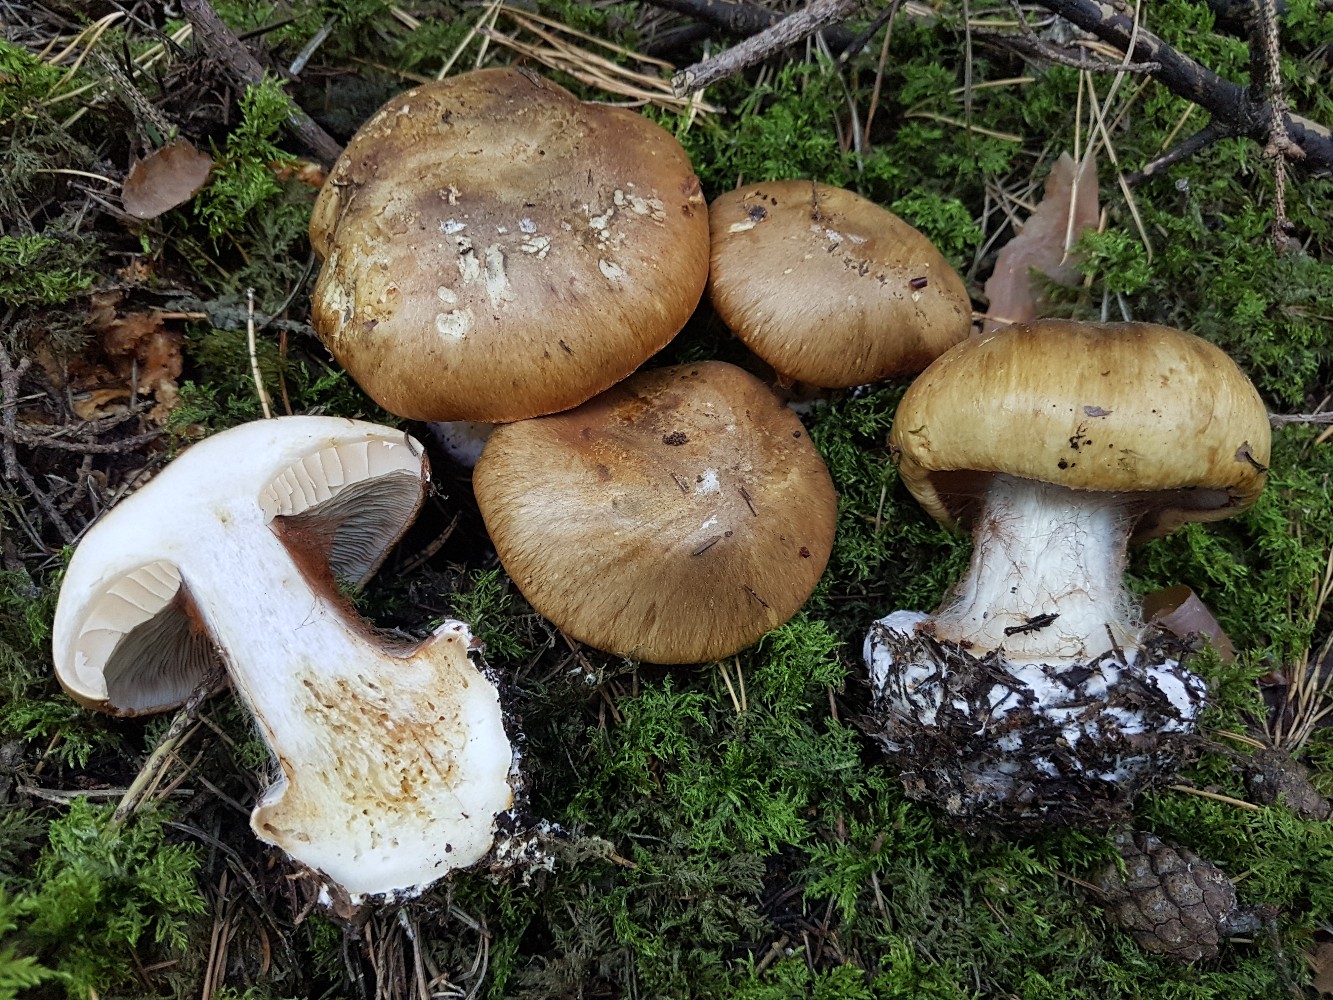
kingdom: Fungi
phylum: Basidiomycota
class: Agaricomycetes
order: Agaricales
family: Cortinariaceae
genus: Calonarius
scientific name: Calonarius pseudoglaucopus
